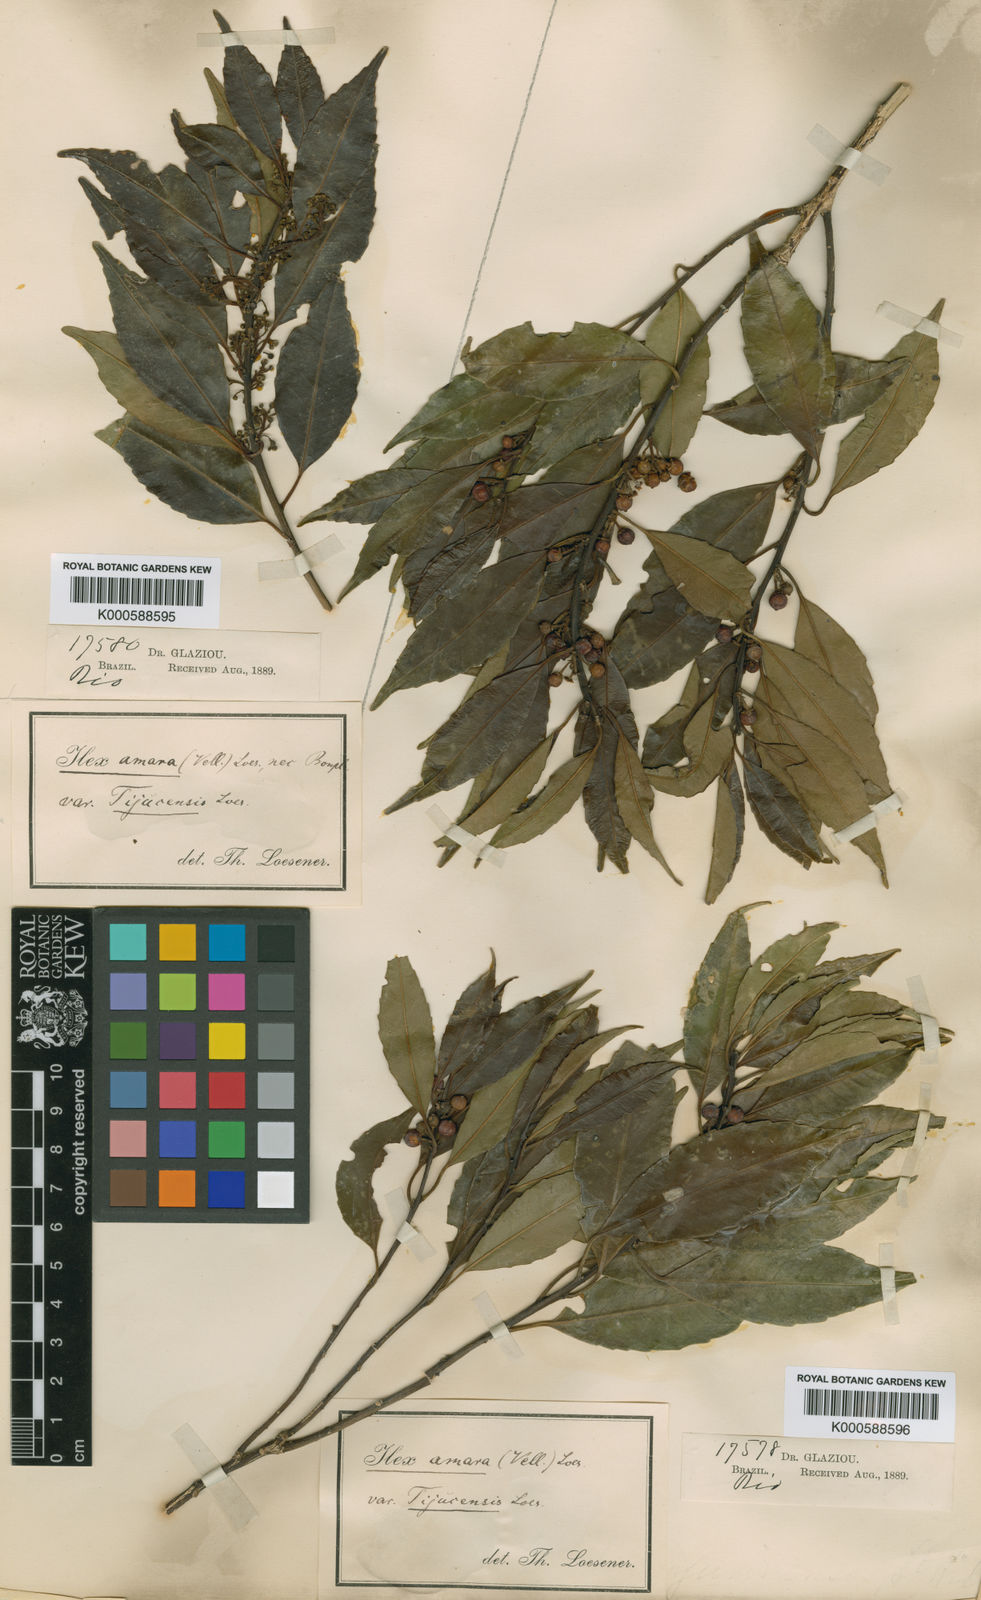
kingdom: Plantae
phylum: Tracheophyta
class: Magnoliopsida
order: Aquifoliales
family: Aquifoliaceae
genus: Ilex
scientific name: Ilex
